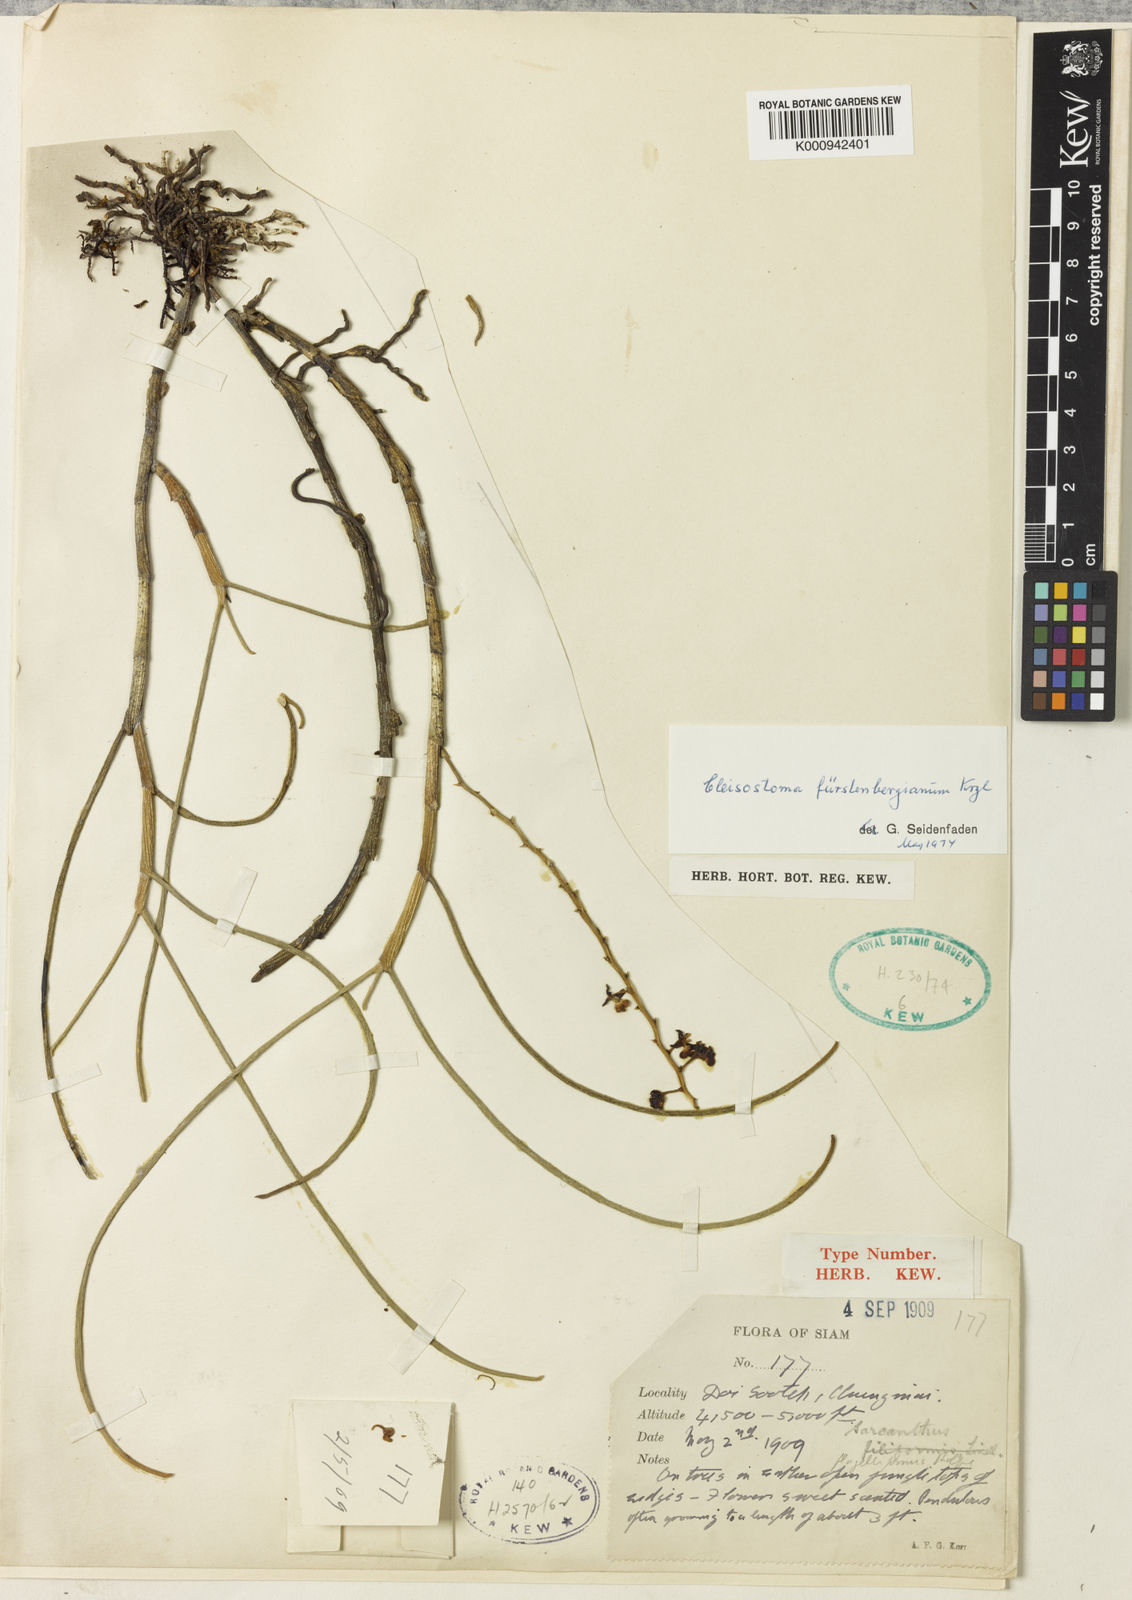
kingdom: Plantae
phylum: Tracheophyta
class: Liliopsida
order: Asparagales
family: Orchidaceae
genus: Cleisostoma
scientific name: Cleisostoma fuerstenbergianum
